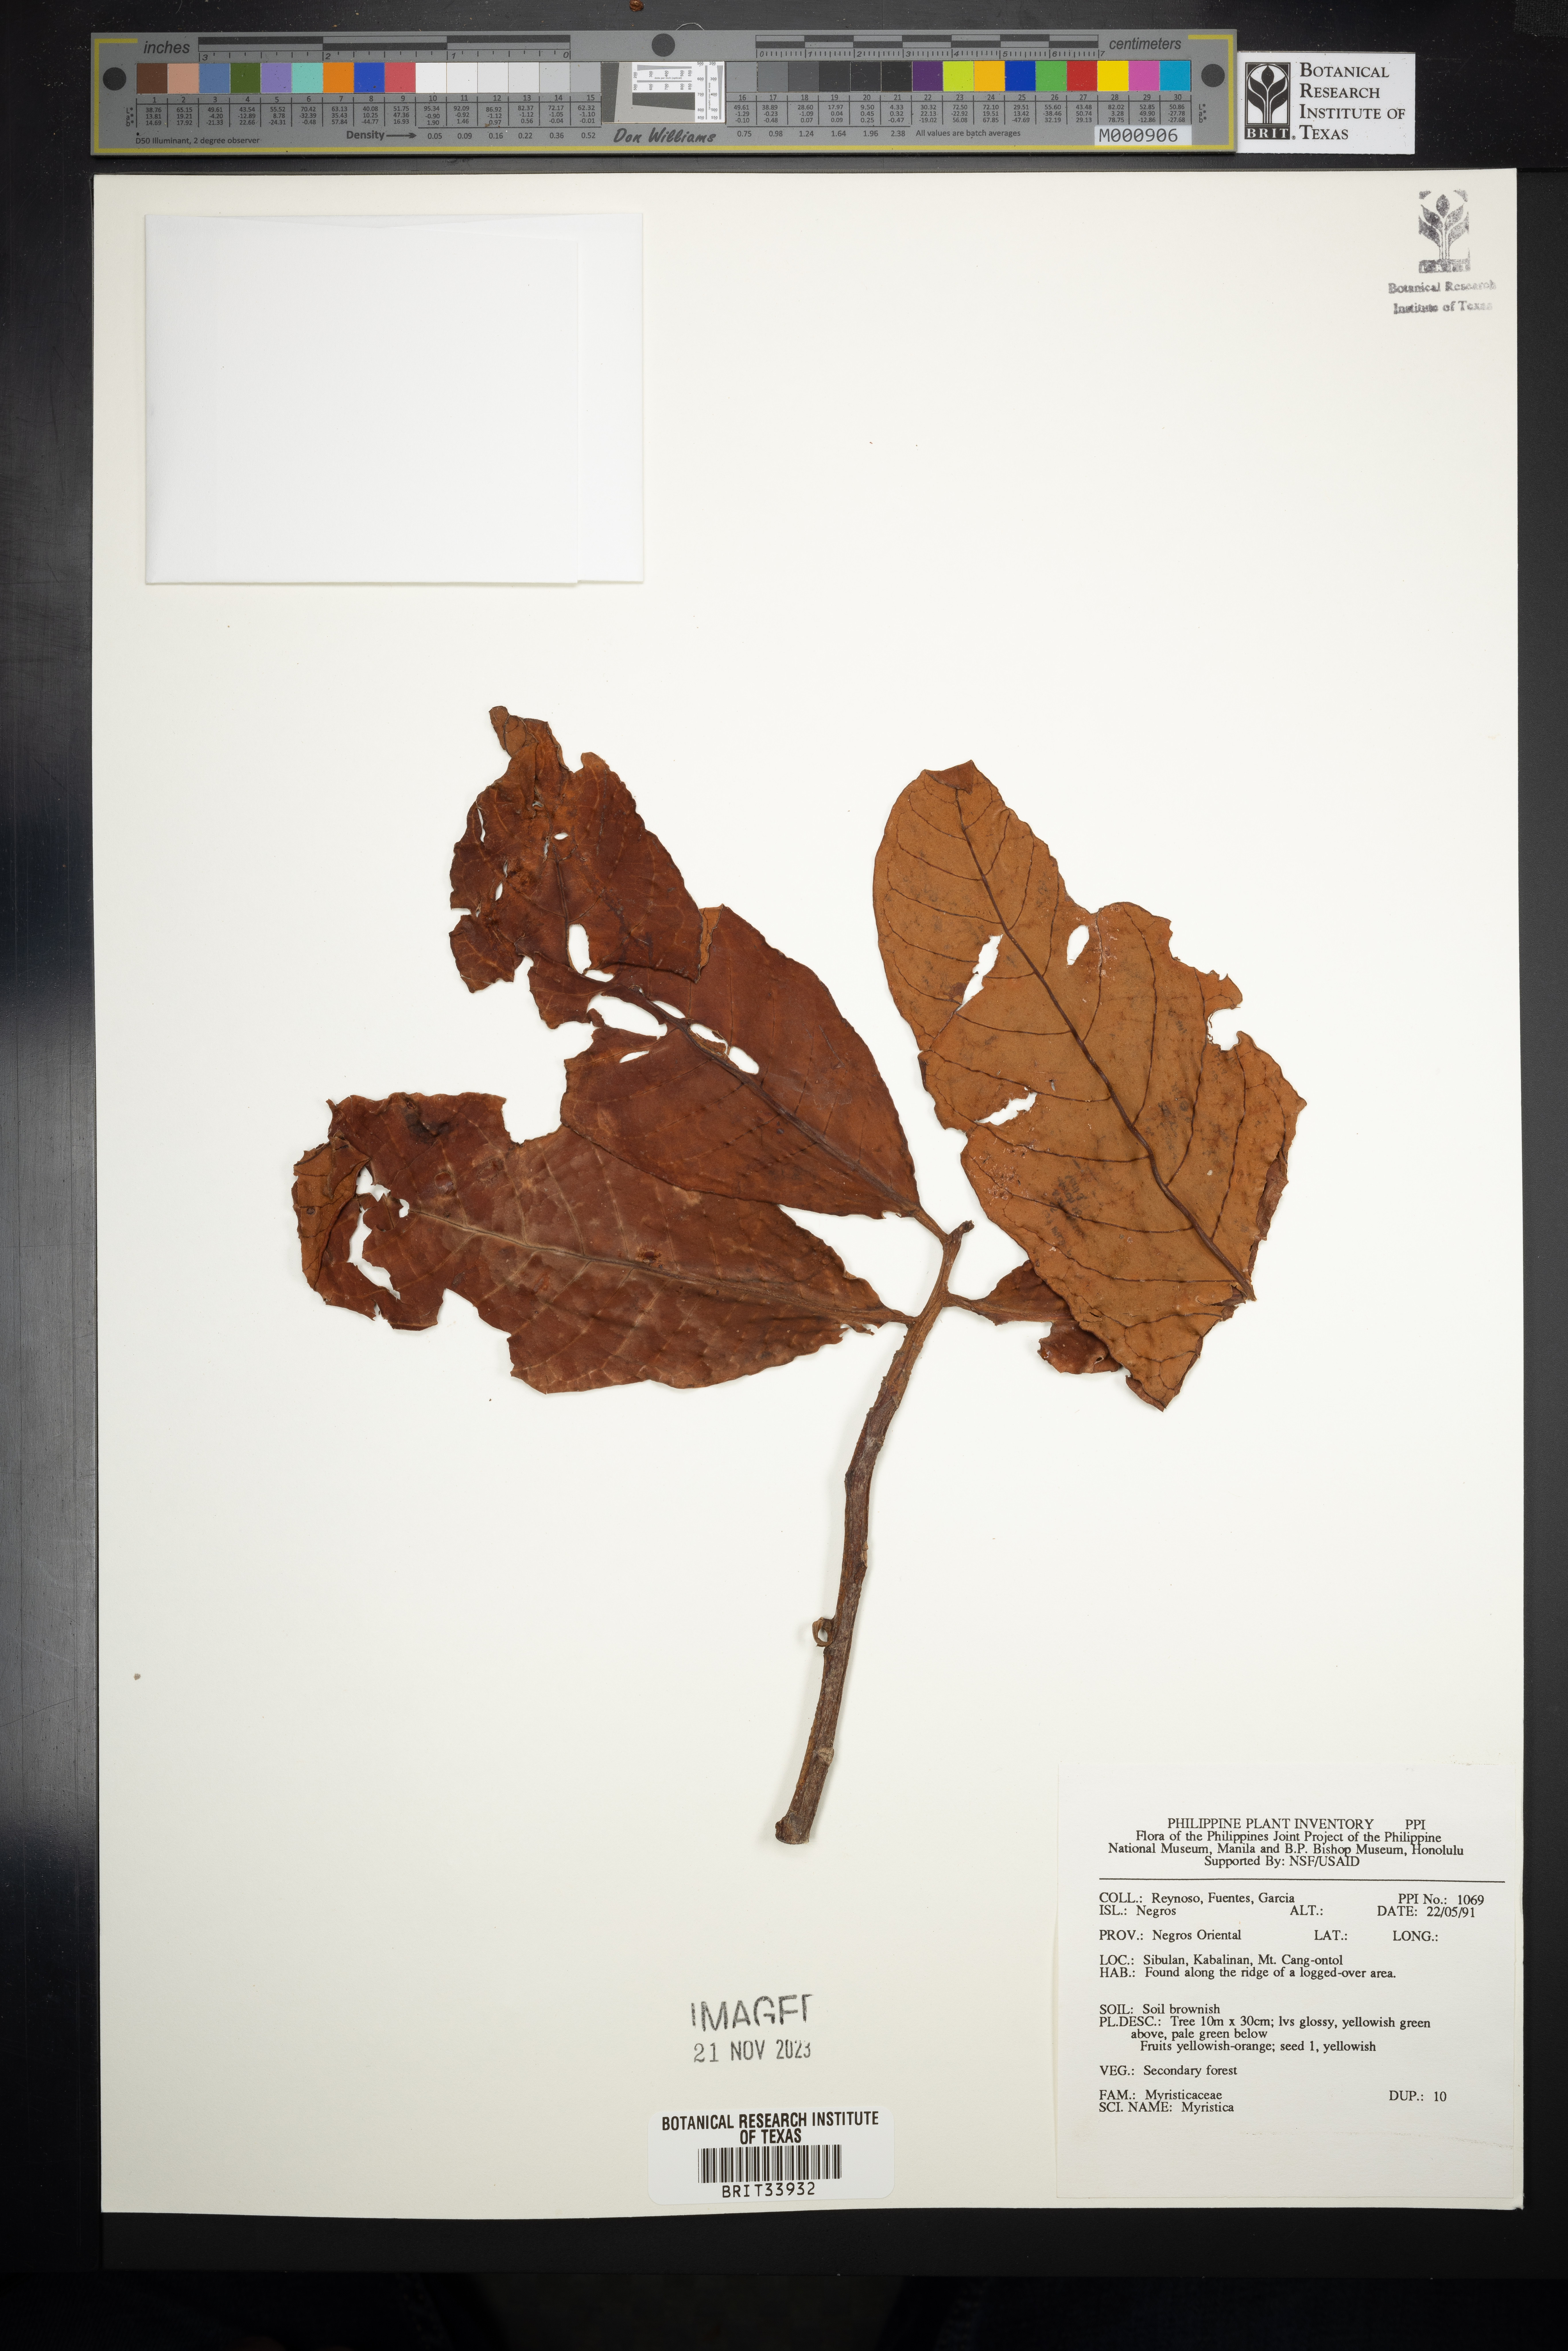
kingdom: Plantae
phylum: Tracheophyta
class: Magnoliopsida
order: Magnoliales
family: Myristicaceae
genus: Myristica
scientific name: Myristica
